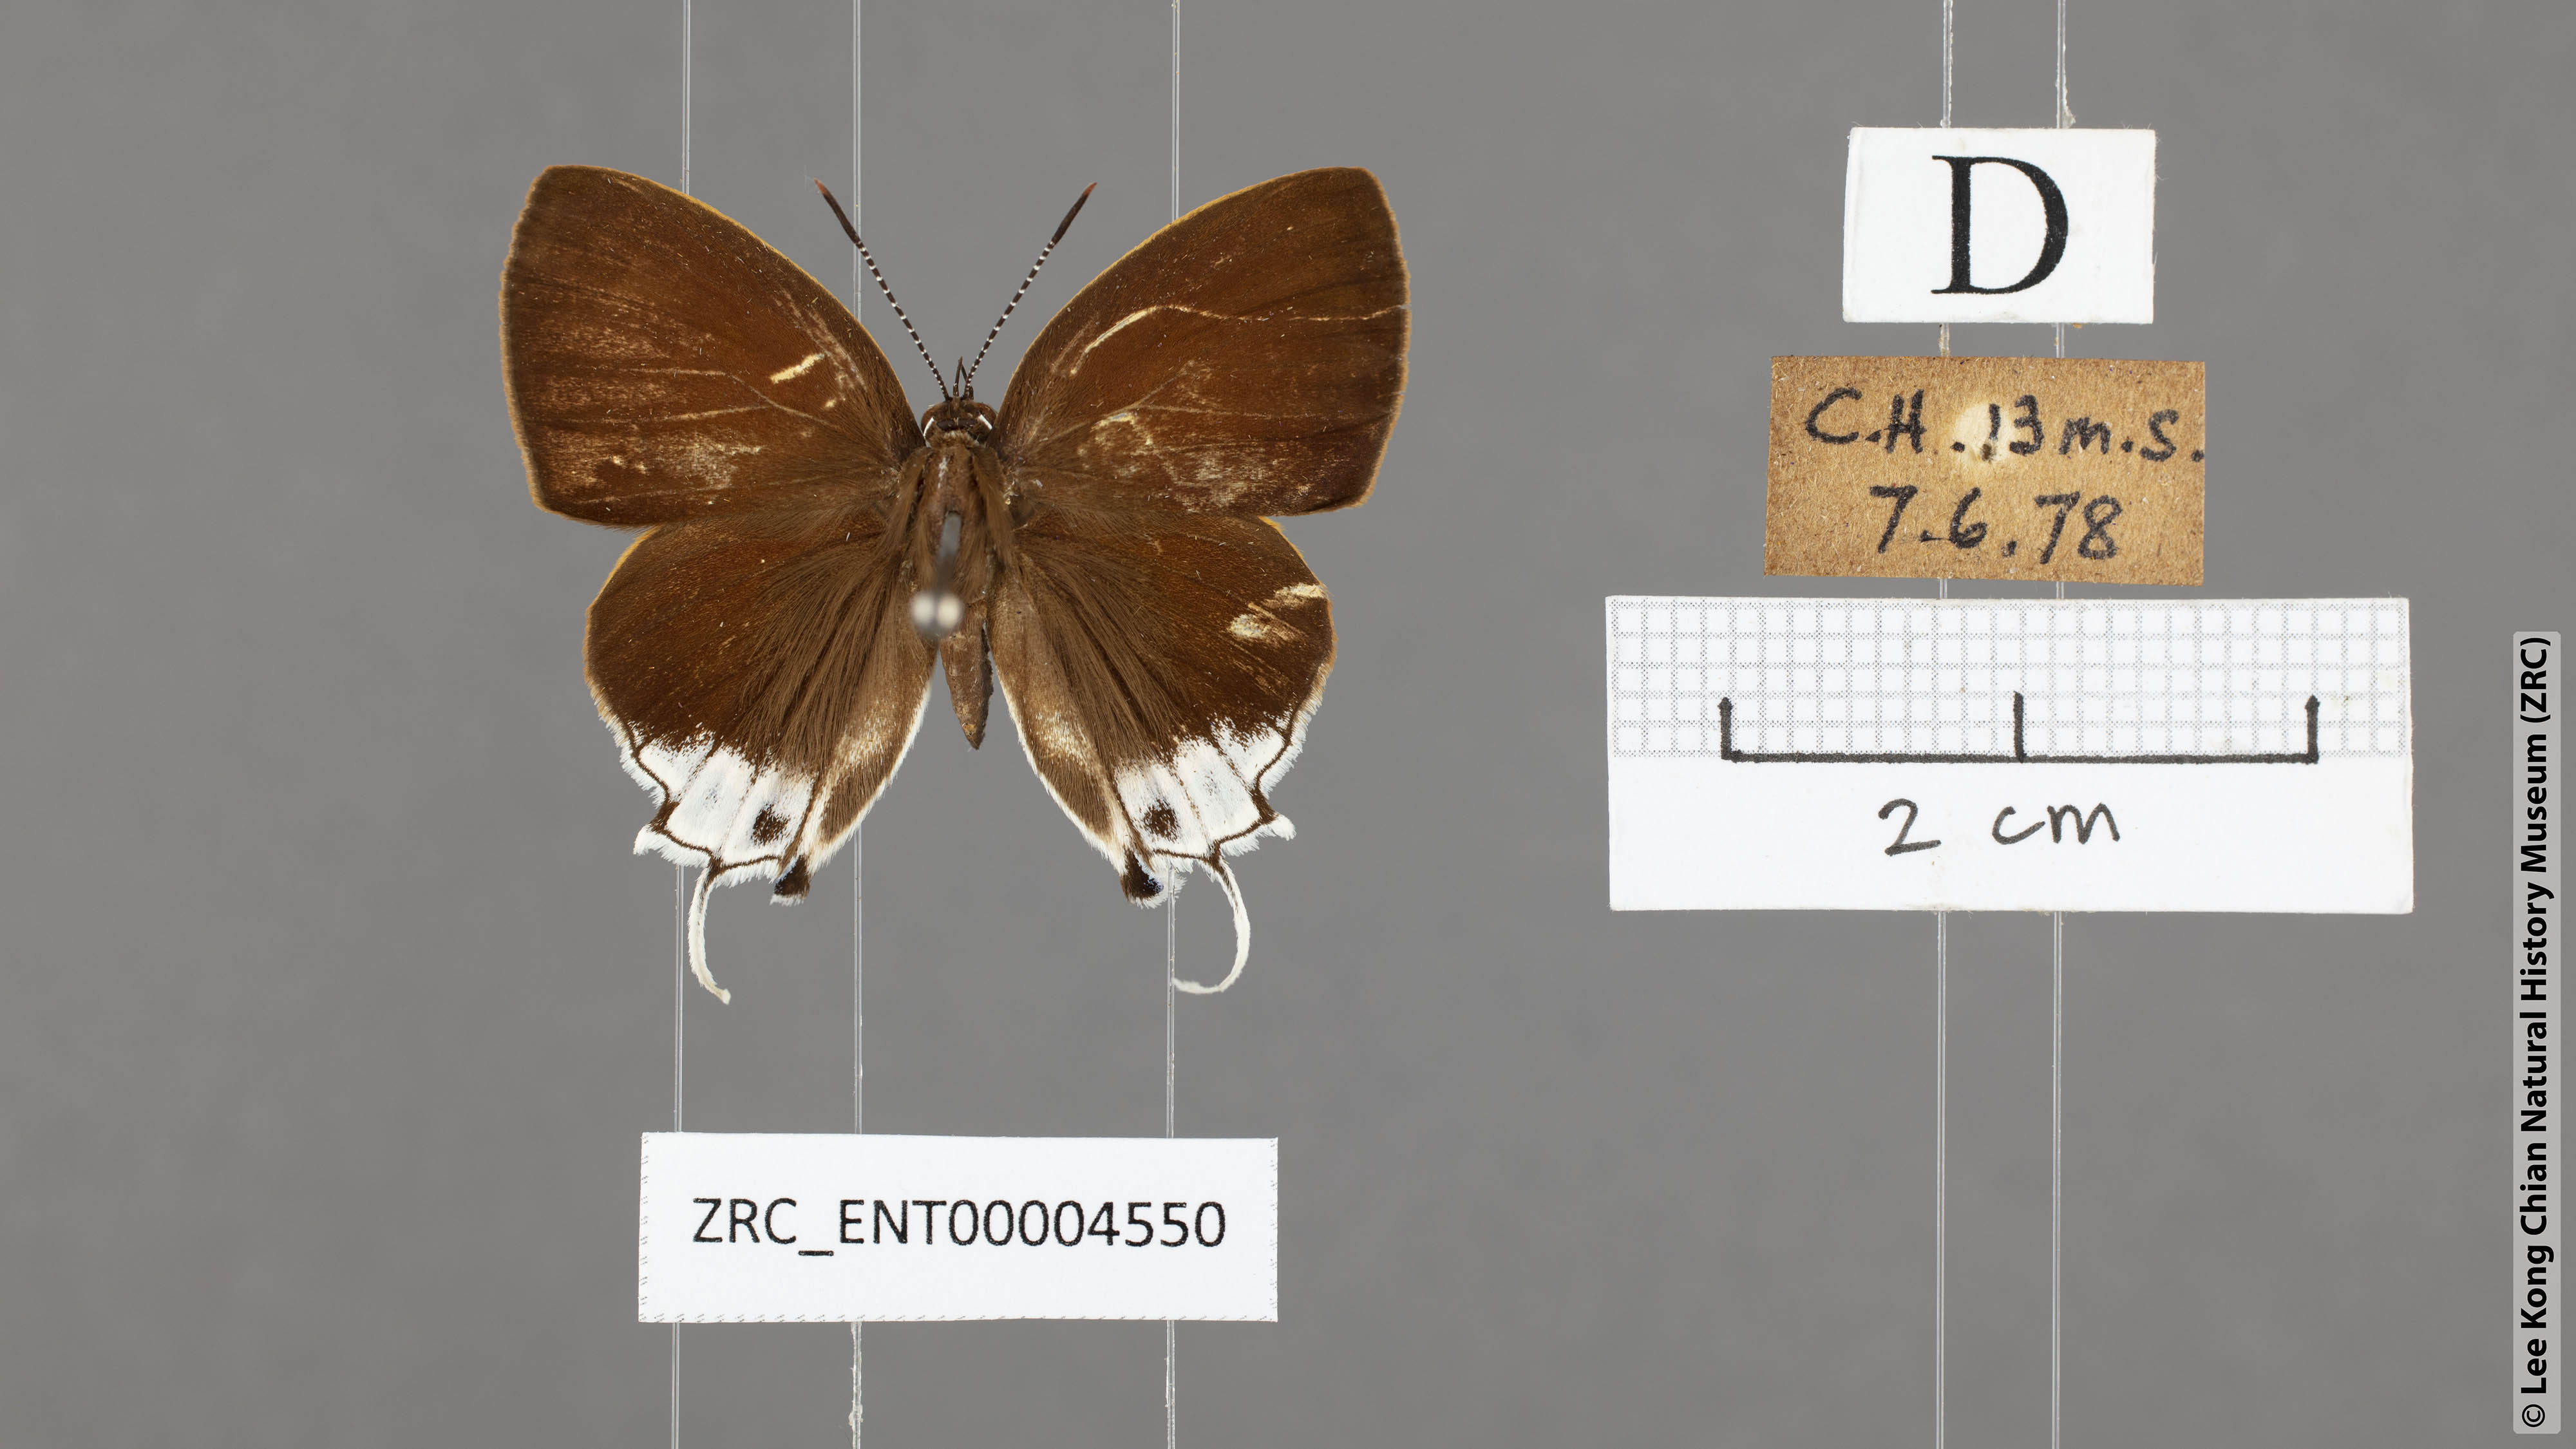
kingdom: Animalia
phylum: Arthropoda
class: Insecta
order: Lepidoptera
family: Lycaenidae
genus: Sithon
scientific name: Sithon nedymond
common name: Plush
